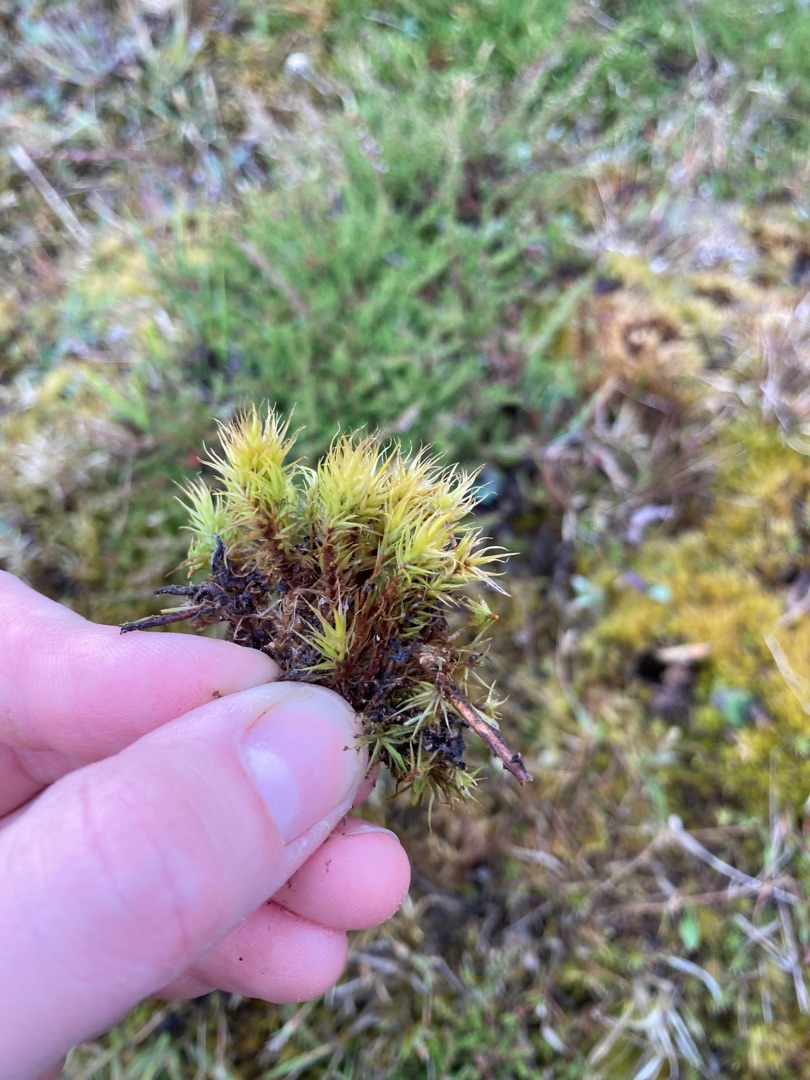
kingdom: Plantae
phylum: Bryophyta
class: Bryopsida
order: Dicranales
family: Dicranaceae
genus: Dicranum
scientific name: Dicranum scoparium
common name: Almindelig kløvtand
